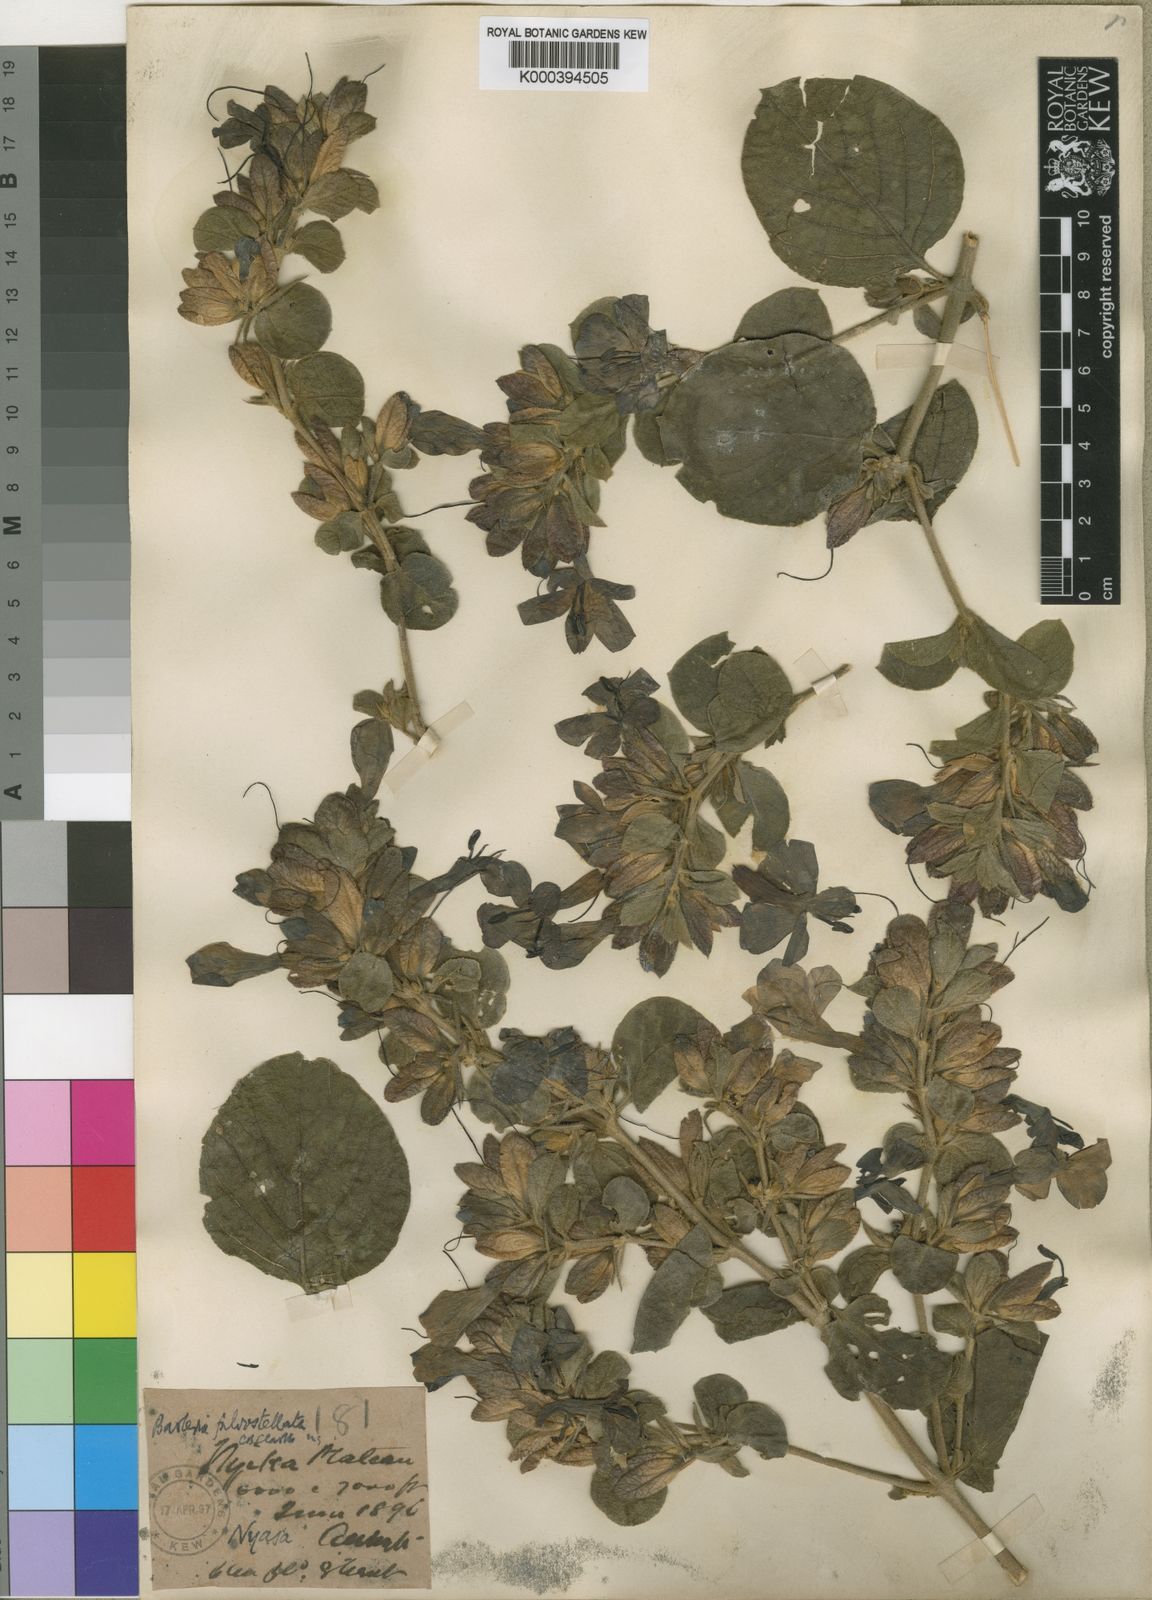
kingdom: Plantae
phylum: Tracheophyta
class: Magnoliopsida
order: Lamiales
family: Acanthaceae
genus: Barleria
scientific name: Barleria fulvostellata
